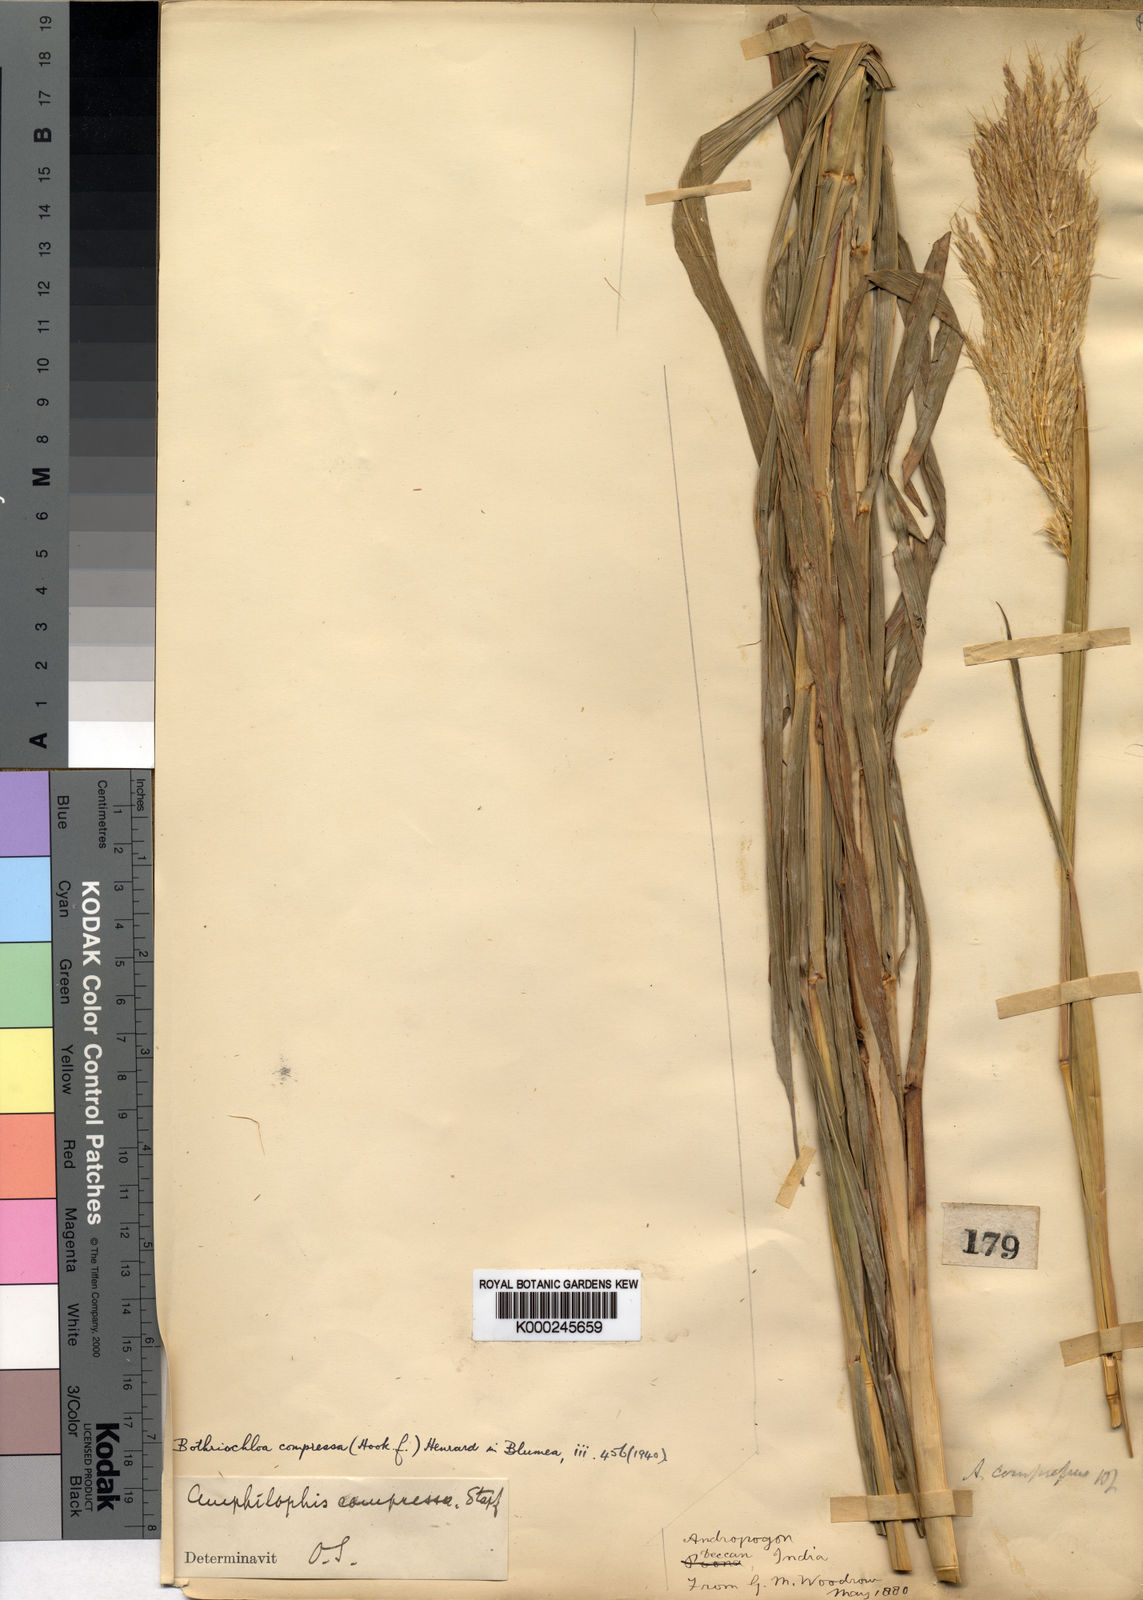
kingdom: Plantae
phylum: Tracheophyta
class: Liliopsida
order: Poales
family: Poaceae
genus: Bothriochloa
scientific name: Bothriochloa compressa
